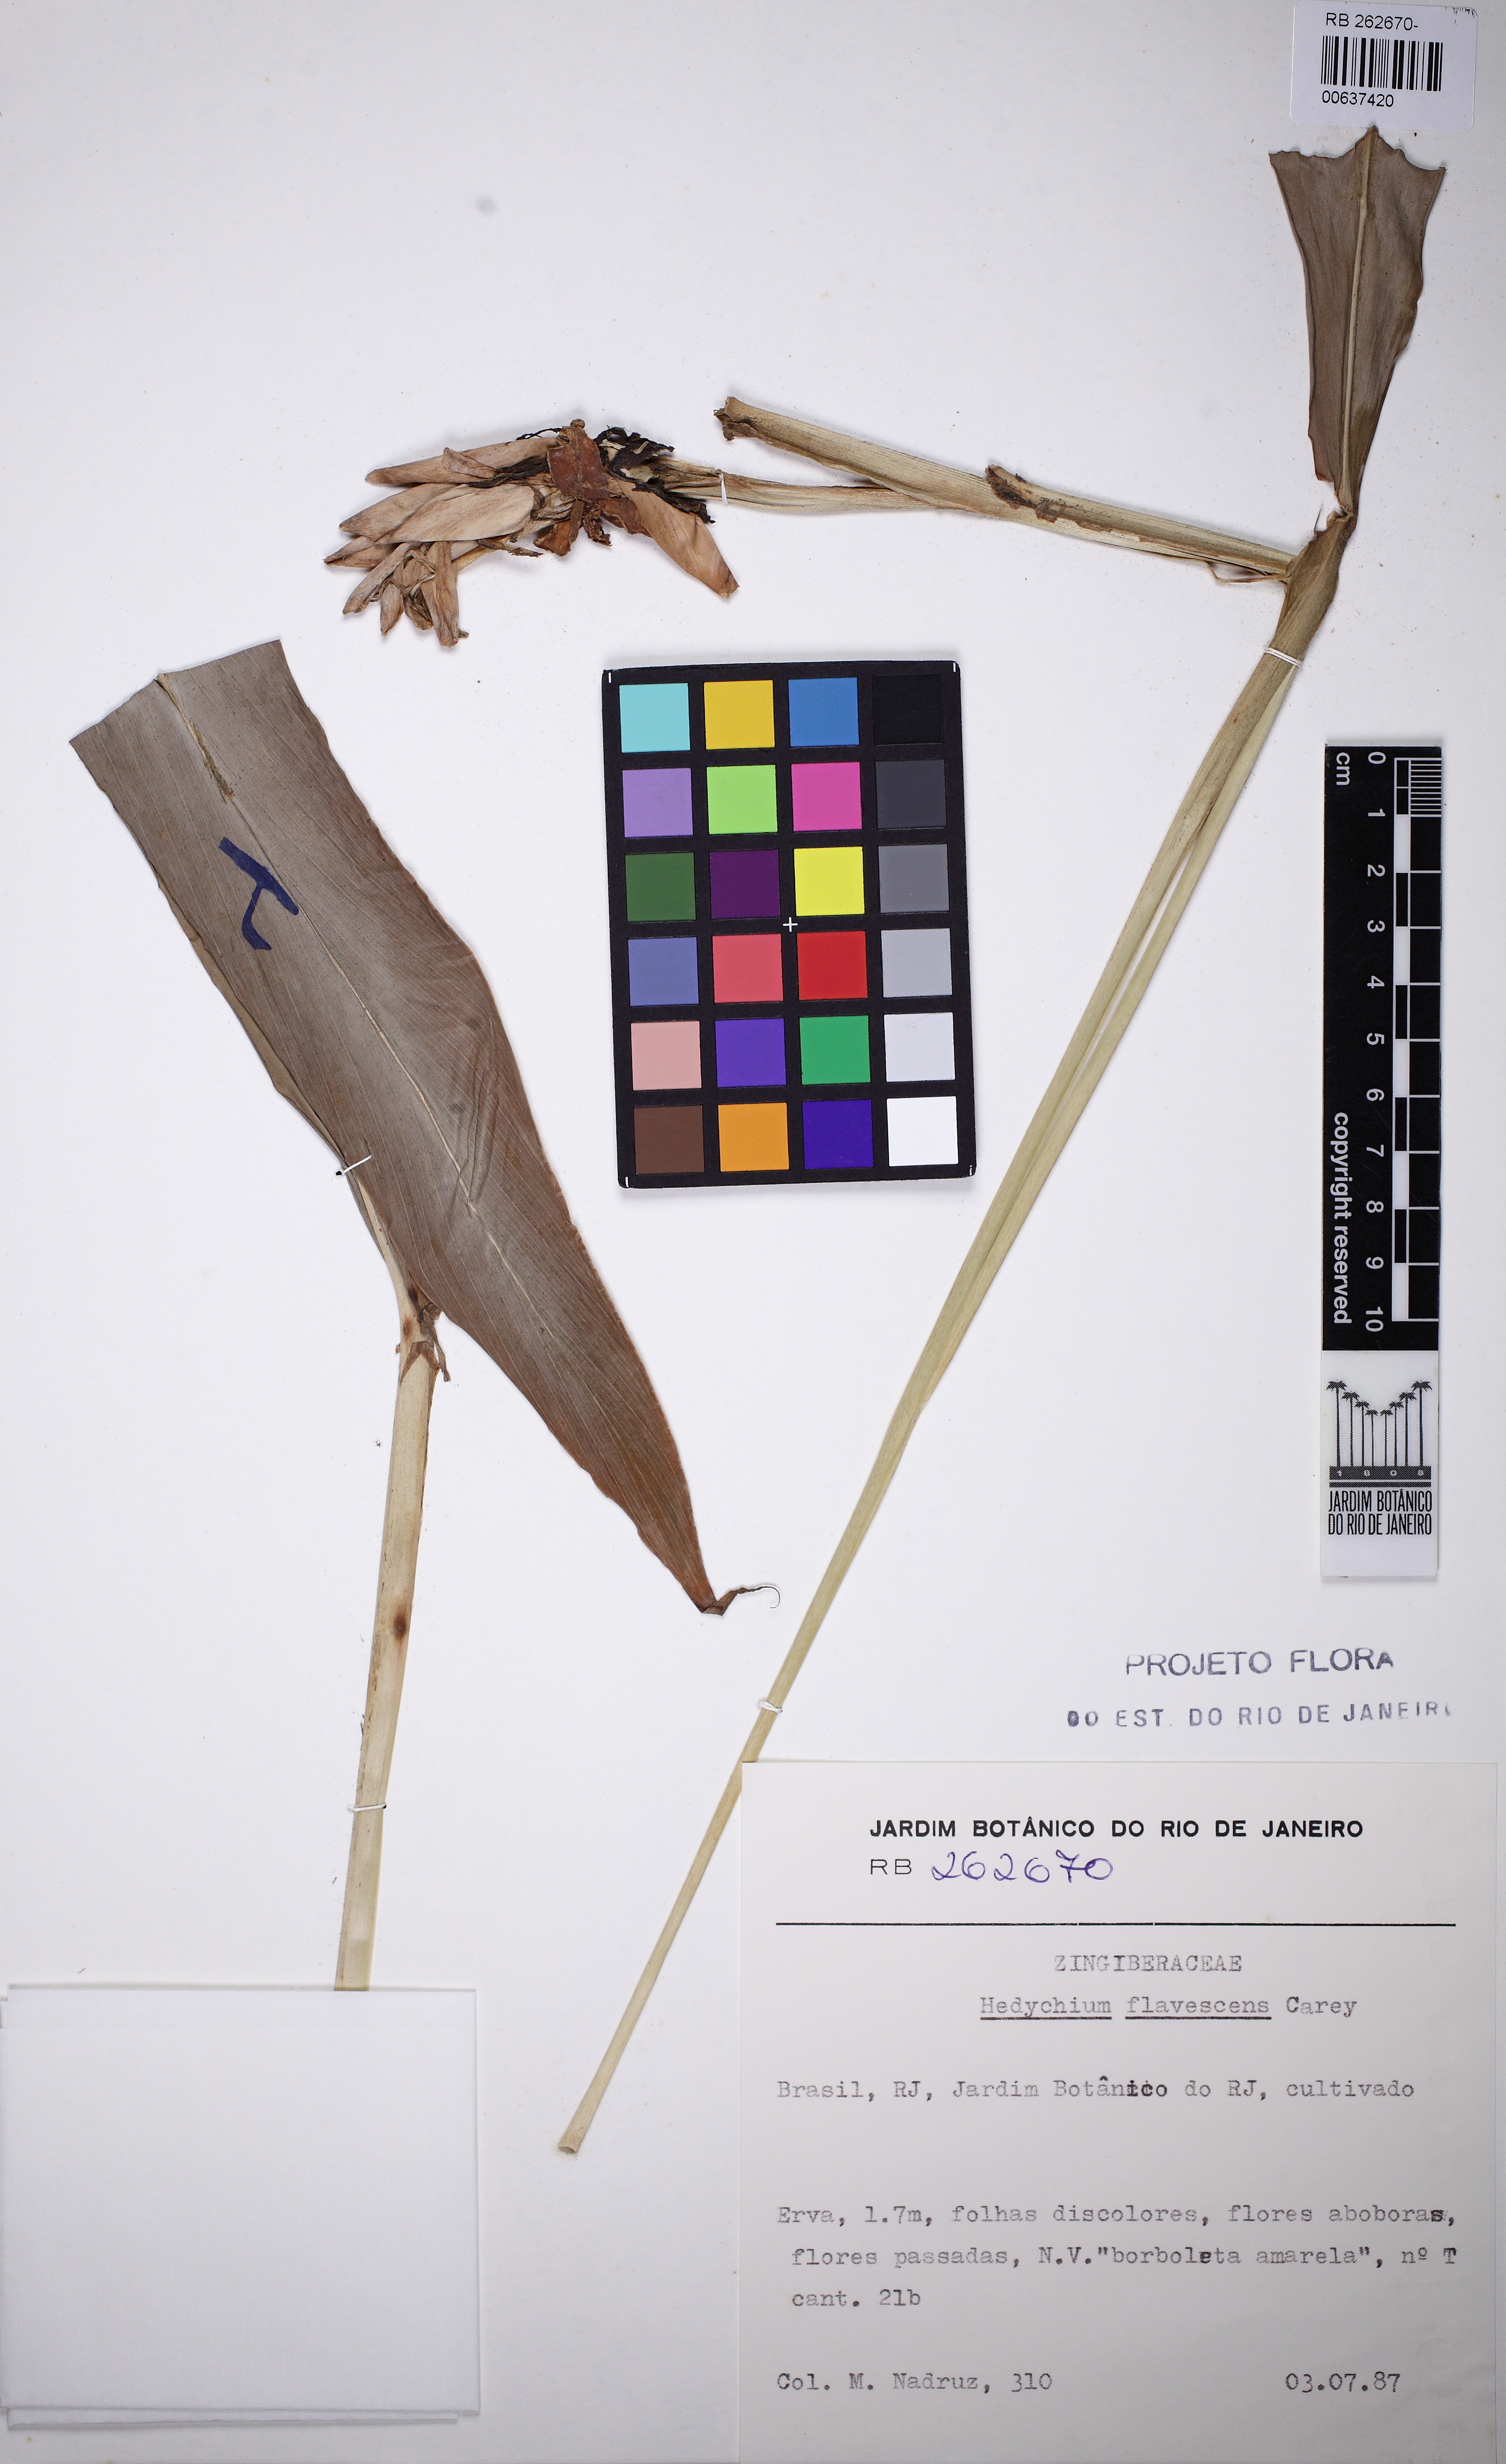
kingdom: Plantae
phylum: Tracheophyta
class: Liliopsida
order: Zingiberales
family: Zingiberaceae
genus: Hedychium
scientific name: Hedychium flavescens
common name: Yellow ginger
